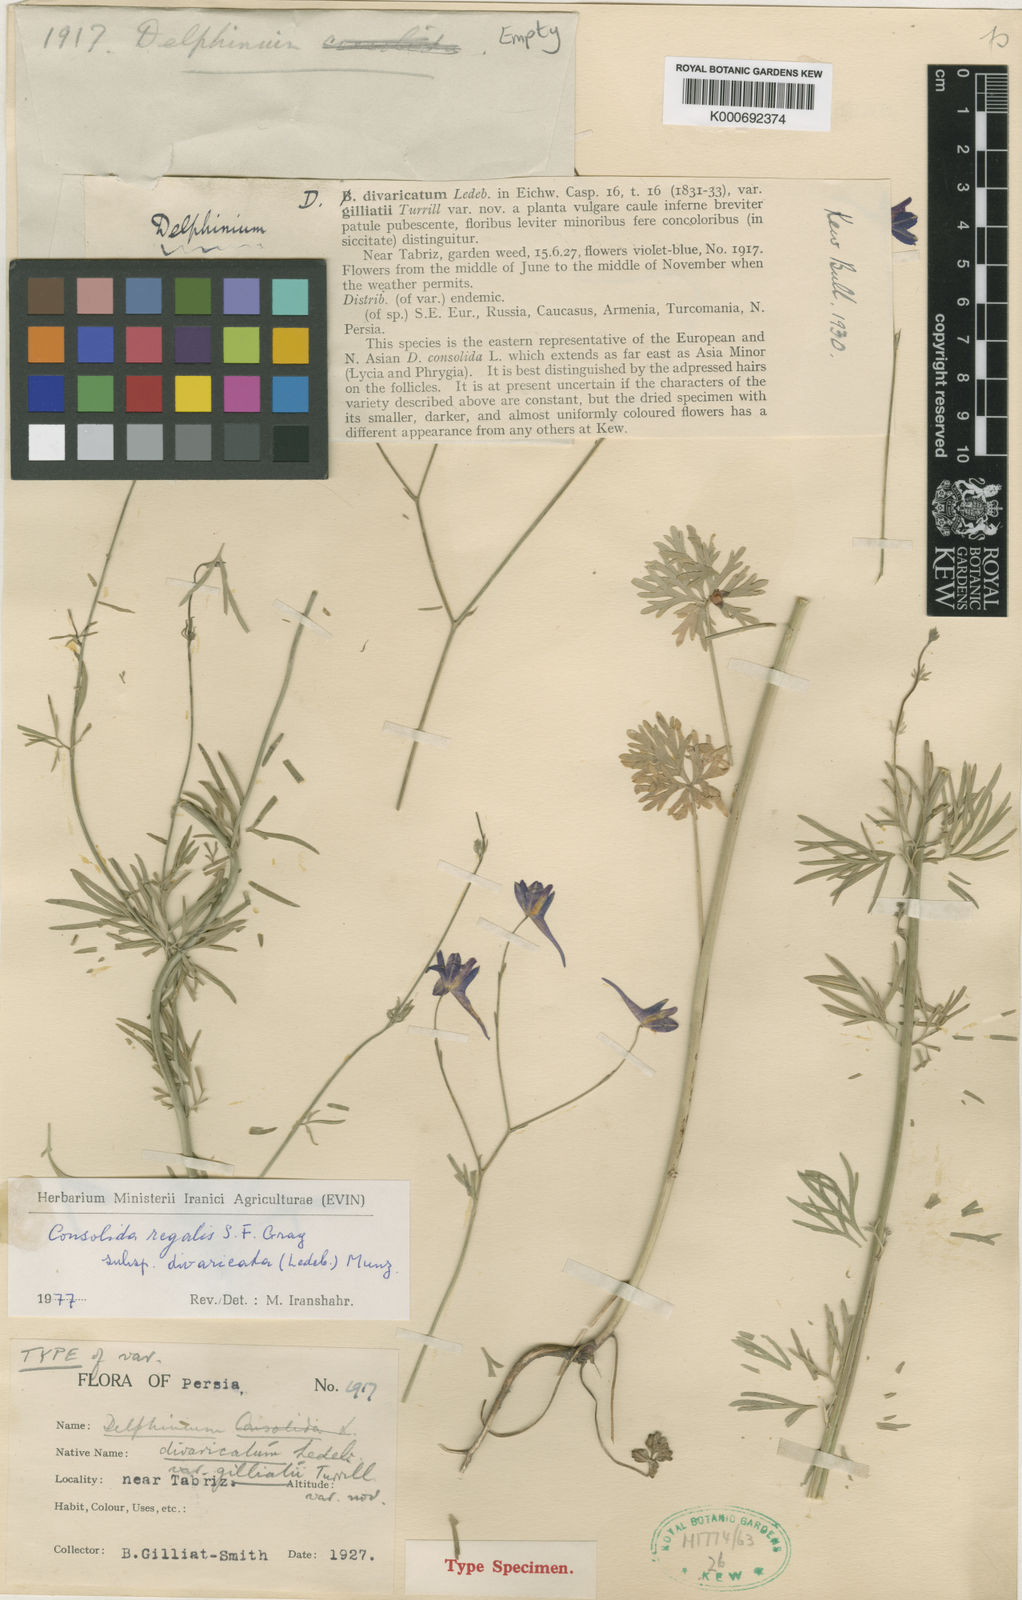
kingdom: Plantae
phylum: Tracheophyta
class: Magnoliopsida
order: Ranunculales
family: Ranunculaceae
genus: Delphinium
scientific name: Delphinium consolida
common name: Branching larkspur
